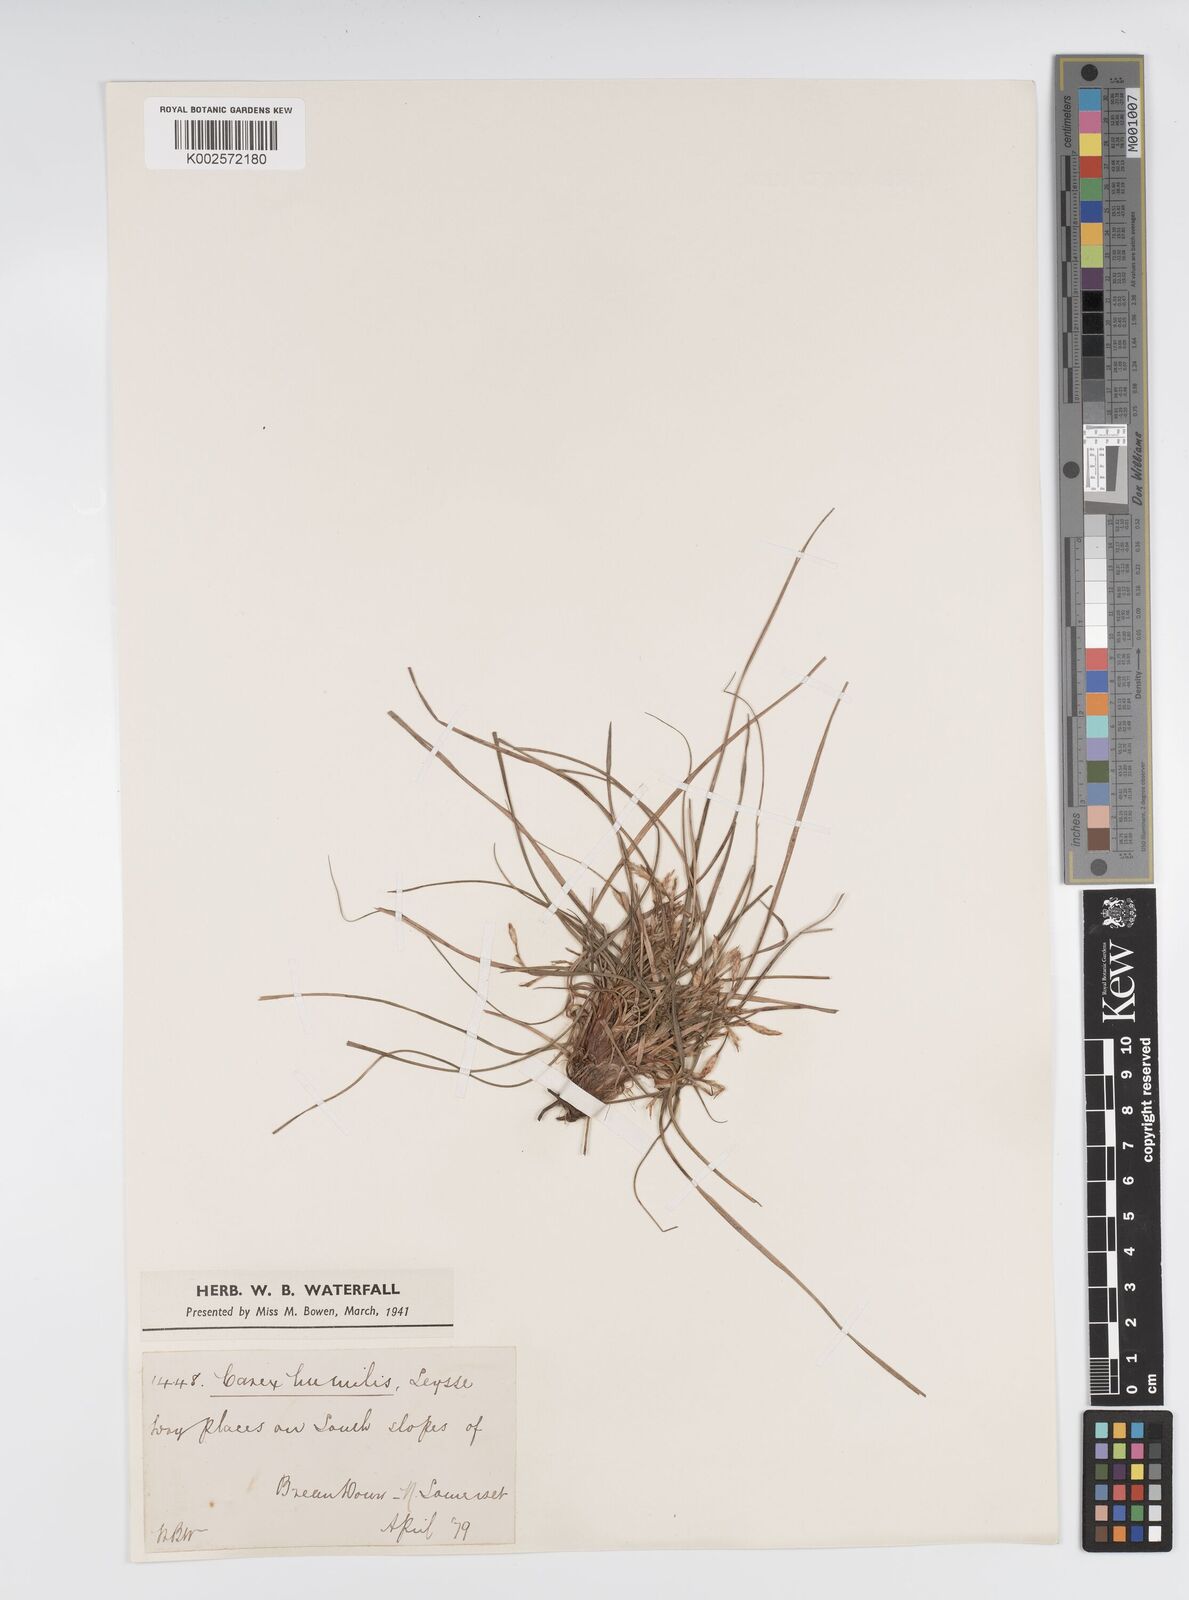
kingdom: Plantae
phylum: Tracheophyta
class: Liliopsida
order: Poales
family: Cyperaceae
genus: Carex
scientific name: Carex humilis
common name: Dwarf sedge
